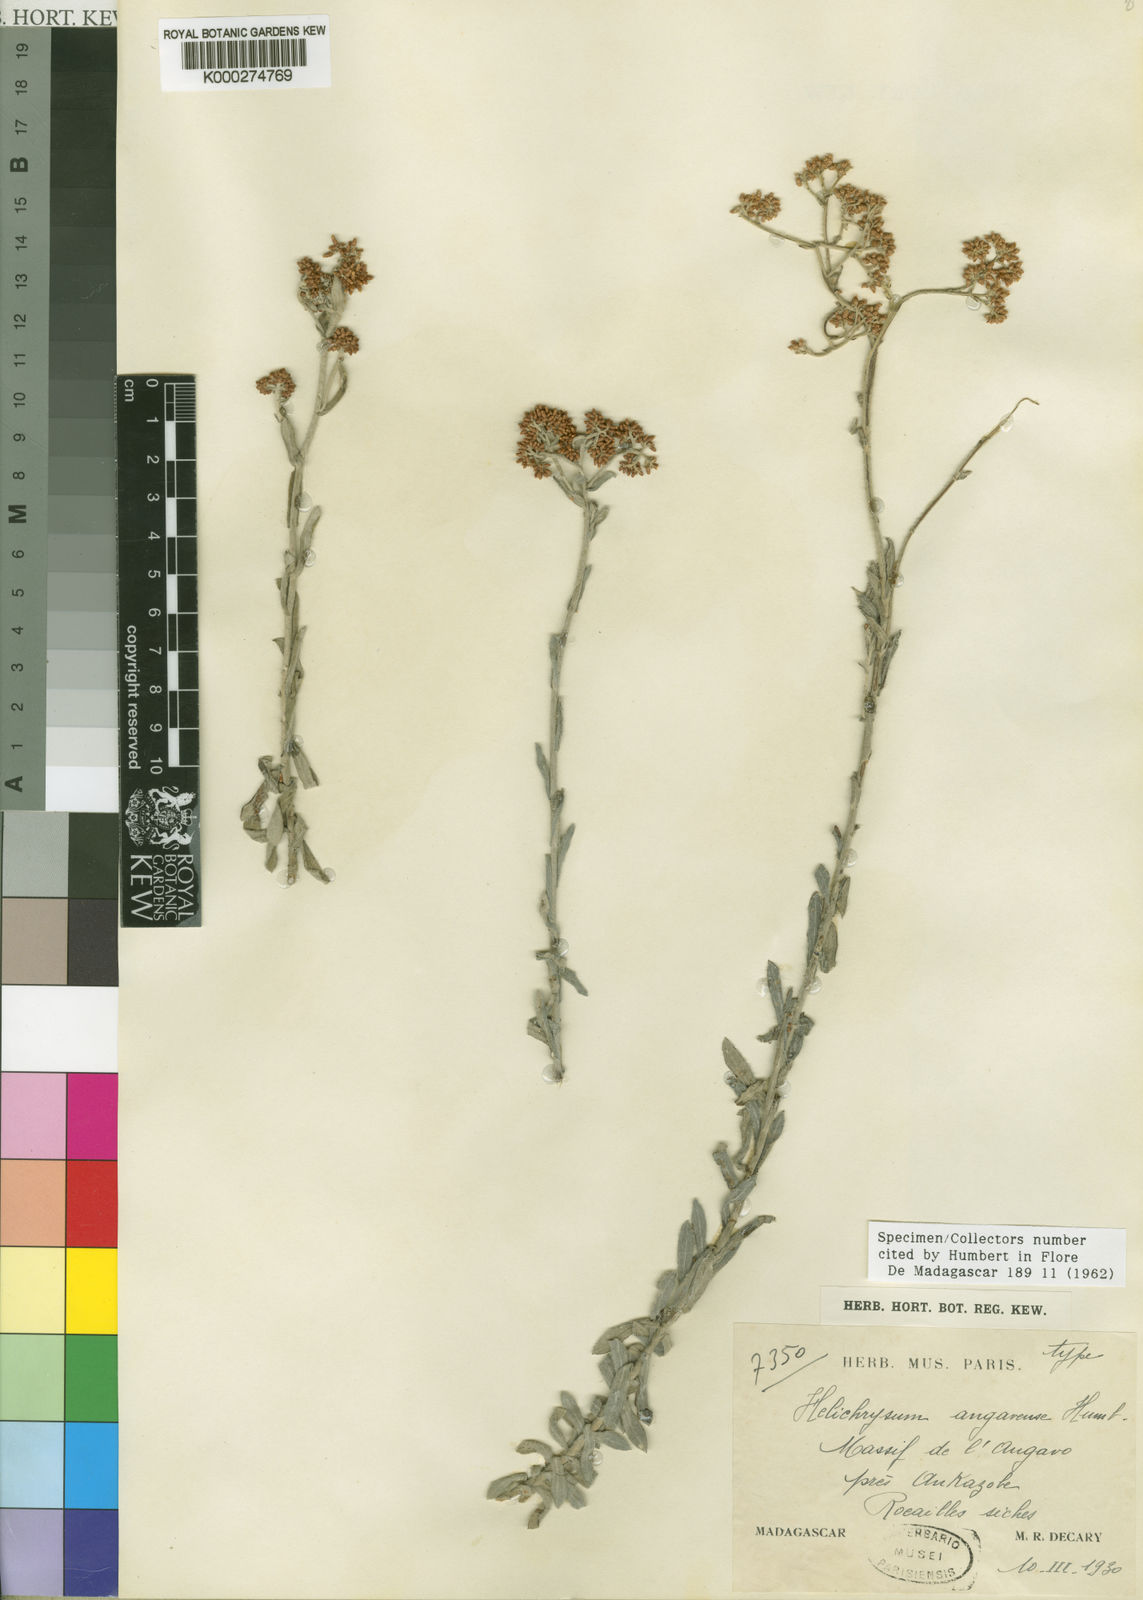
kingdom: Plantae
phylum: Tracheophyta
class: Magnoliopsida
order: Asterales
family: Asteraceae
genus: Helichrysum
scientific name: Helichrysum angavense
